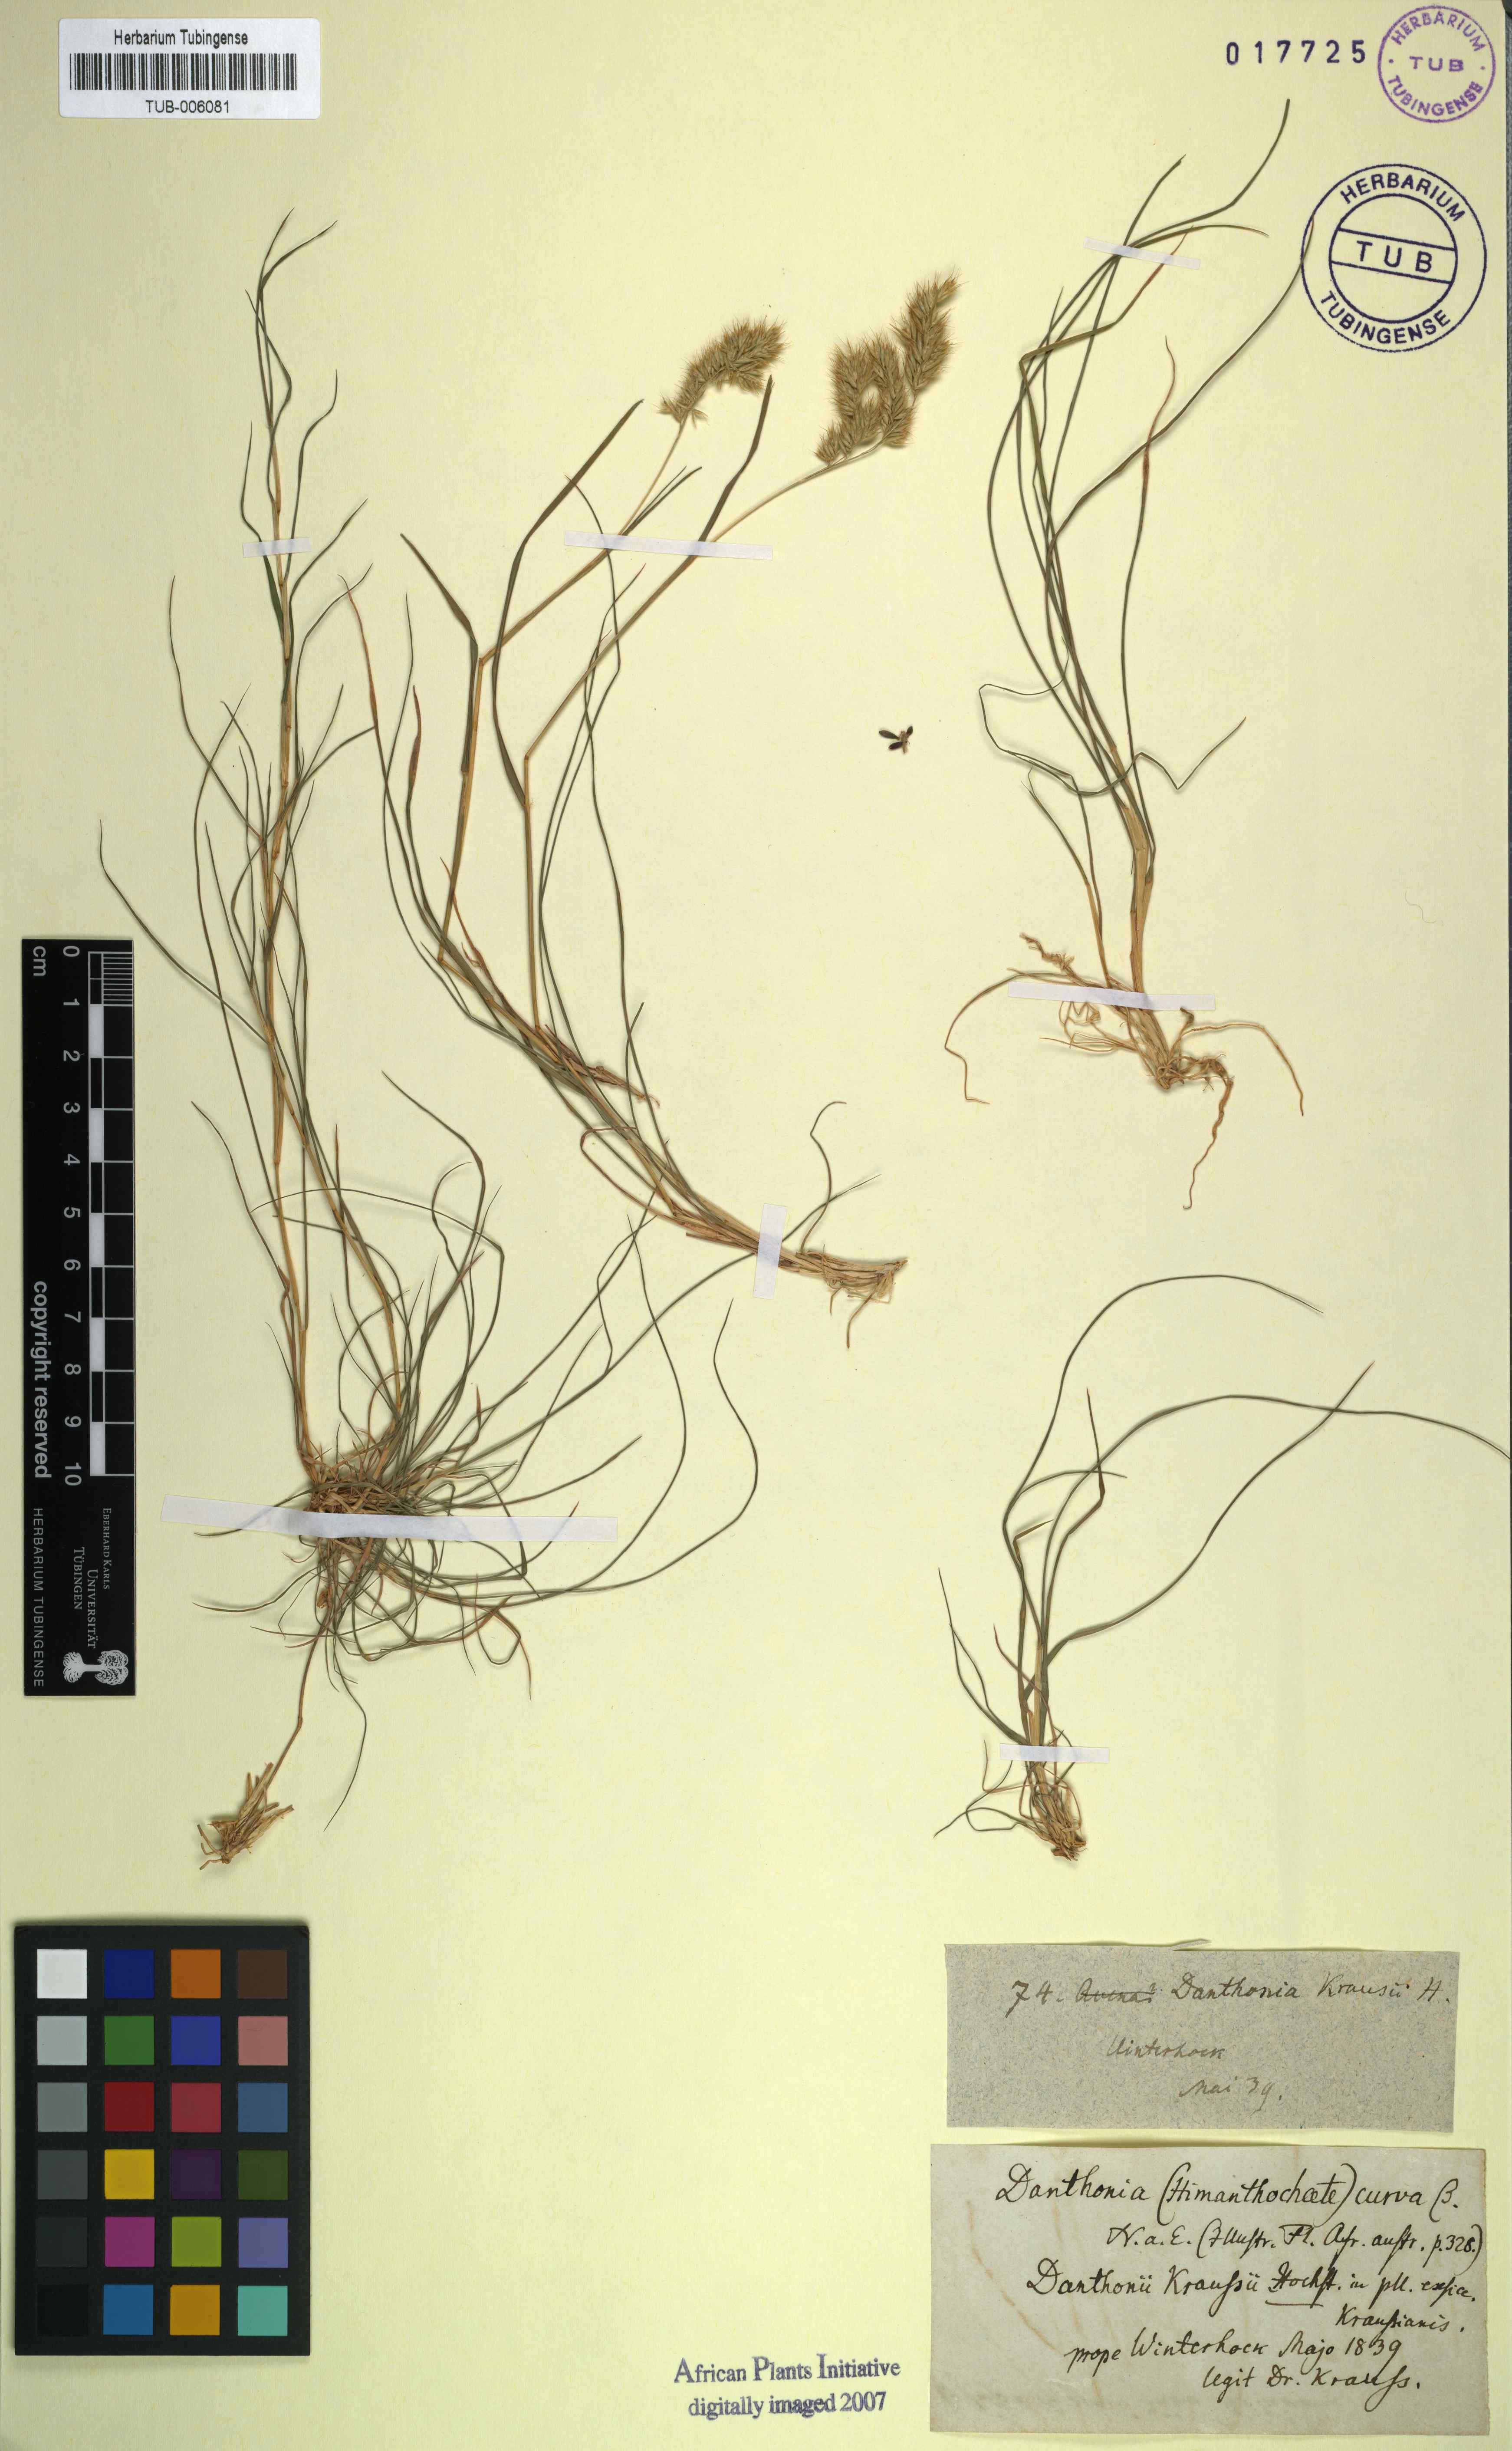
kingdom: Plantae
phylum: Tracheophyta
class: Liliopsida
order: Poales
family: Poaceae
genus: Tribolium
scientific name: Tribolium curvum
